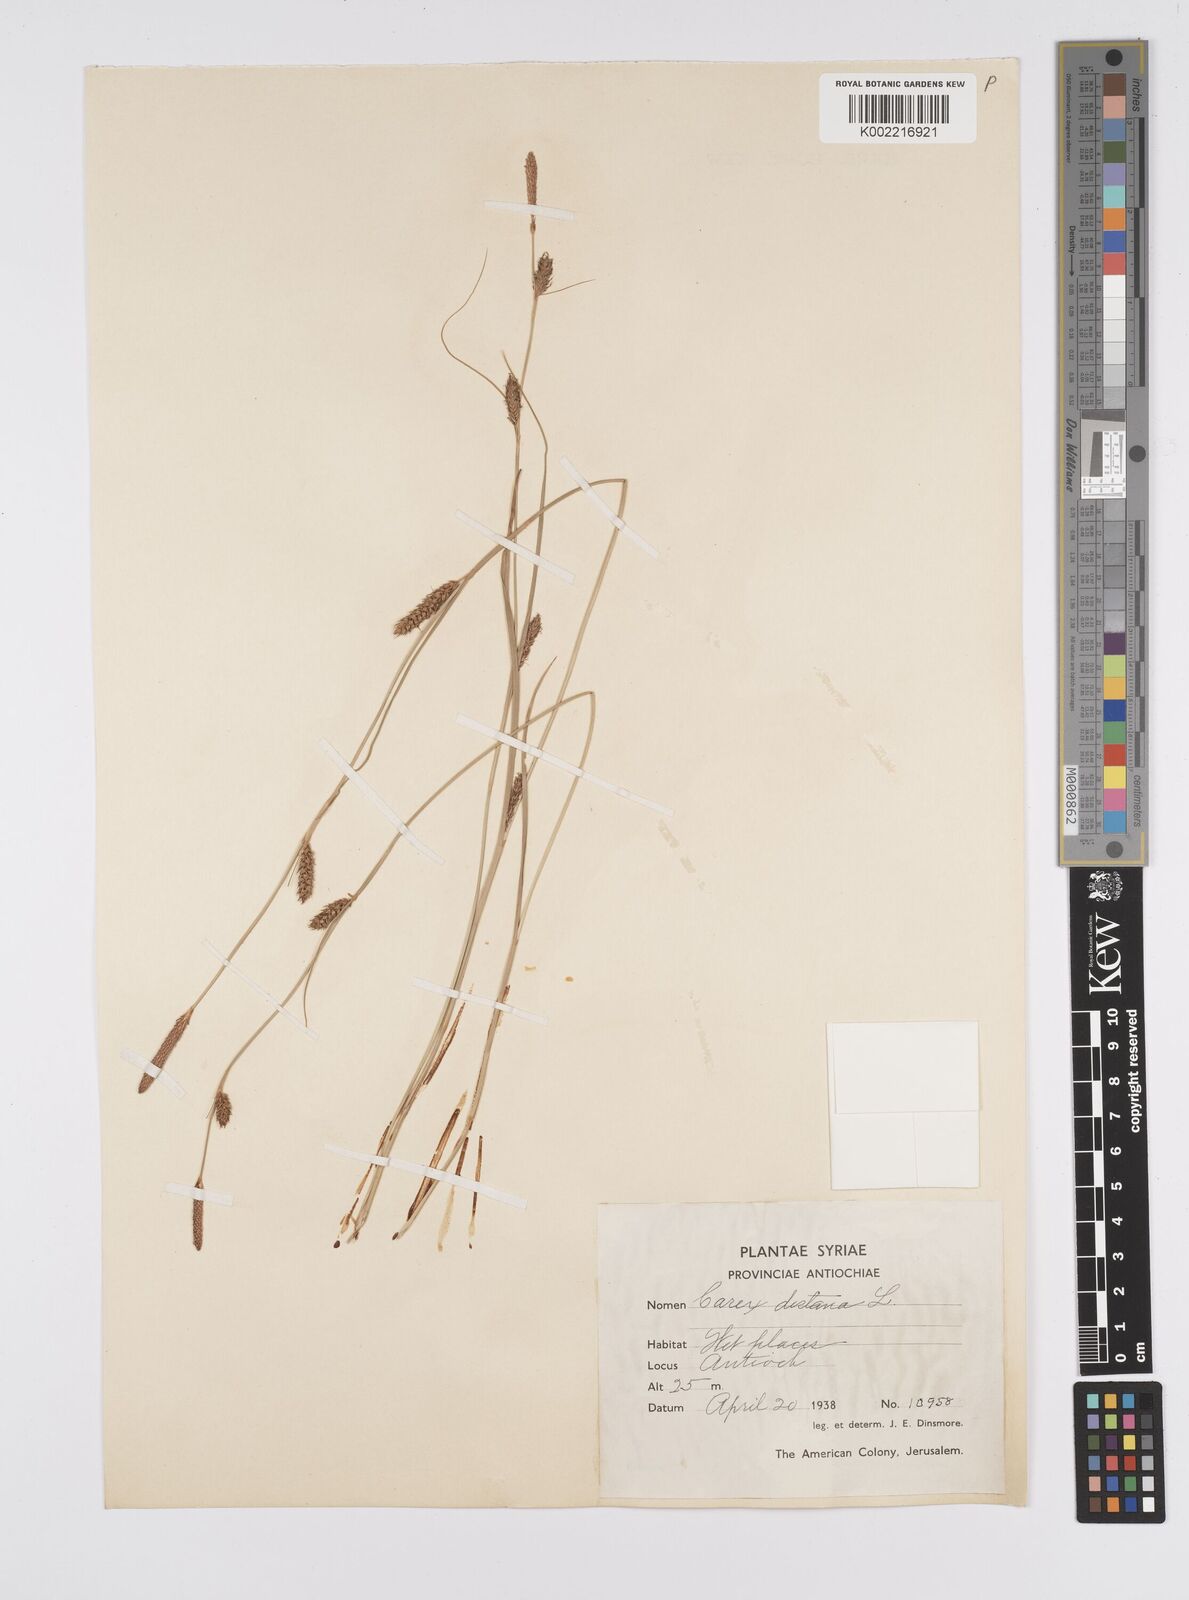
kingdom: Plantae
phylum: Tracheophyta
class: Liliopsida
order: Poales
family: Cyperaceae
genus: Carex
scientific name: Carex distans
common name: Distant sedge
